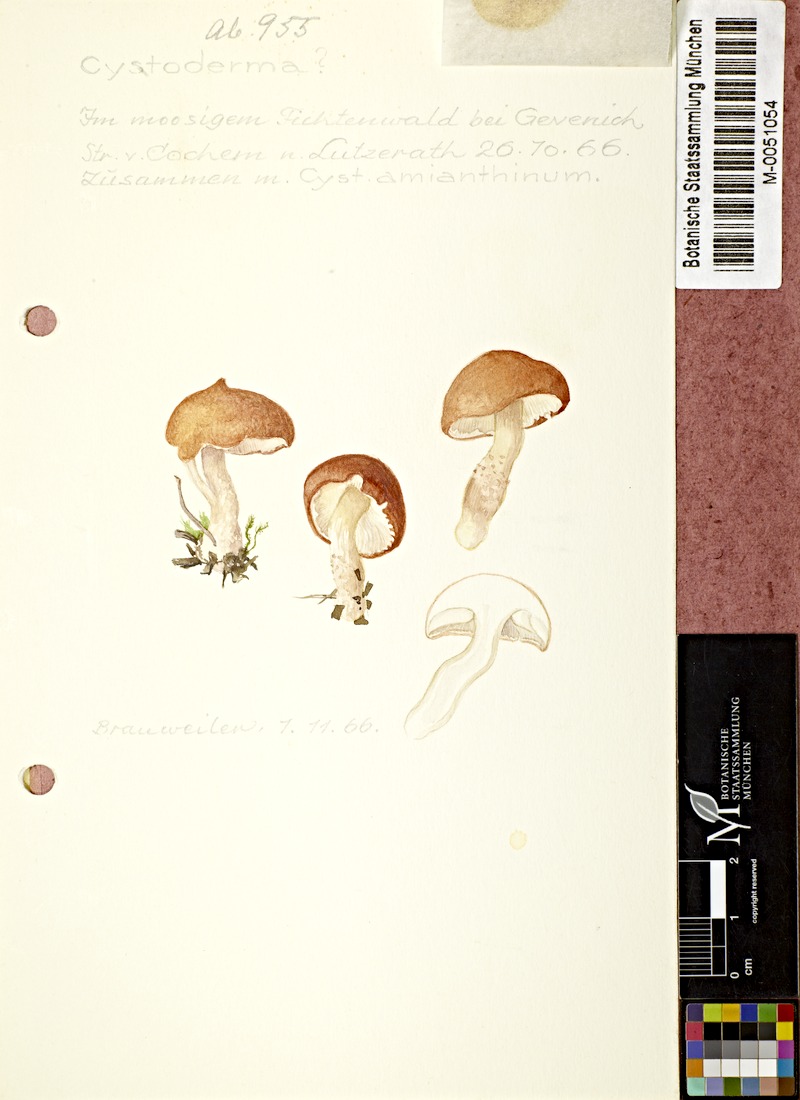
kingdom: Fungi
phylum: Basidiomycota
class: Agaricomycetes
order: Agaricales
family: Tricholomataceae
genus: Cystoderma
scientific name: Cystoderma
